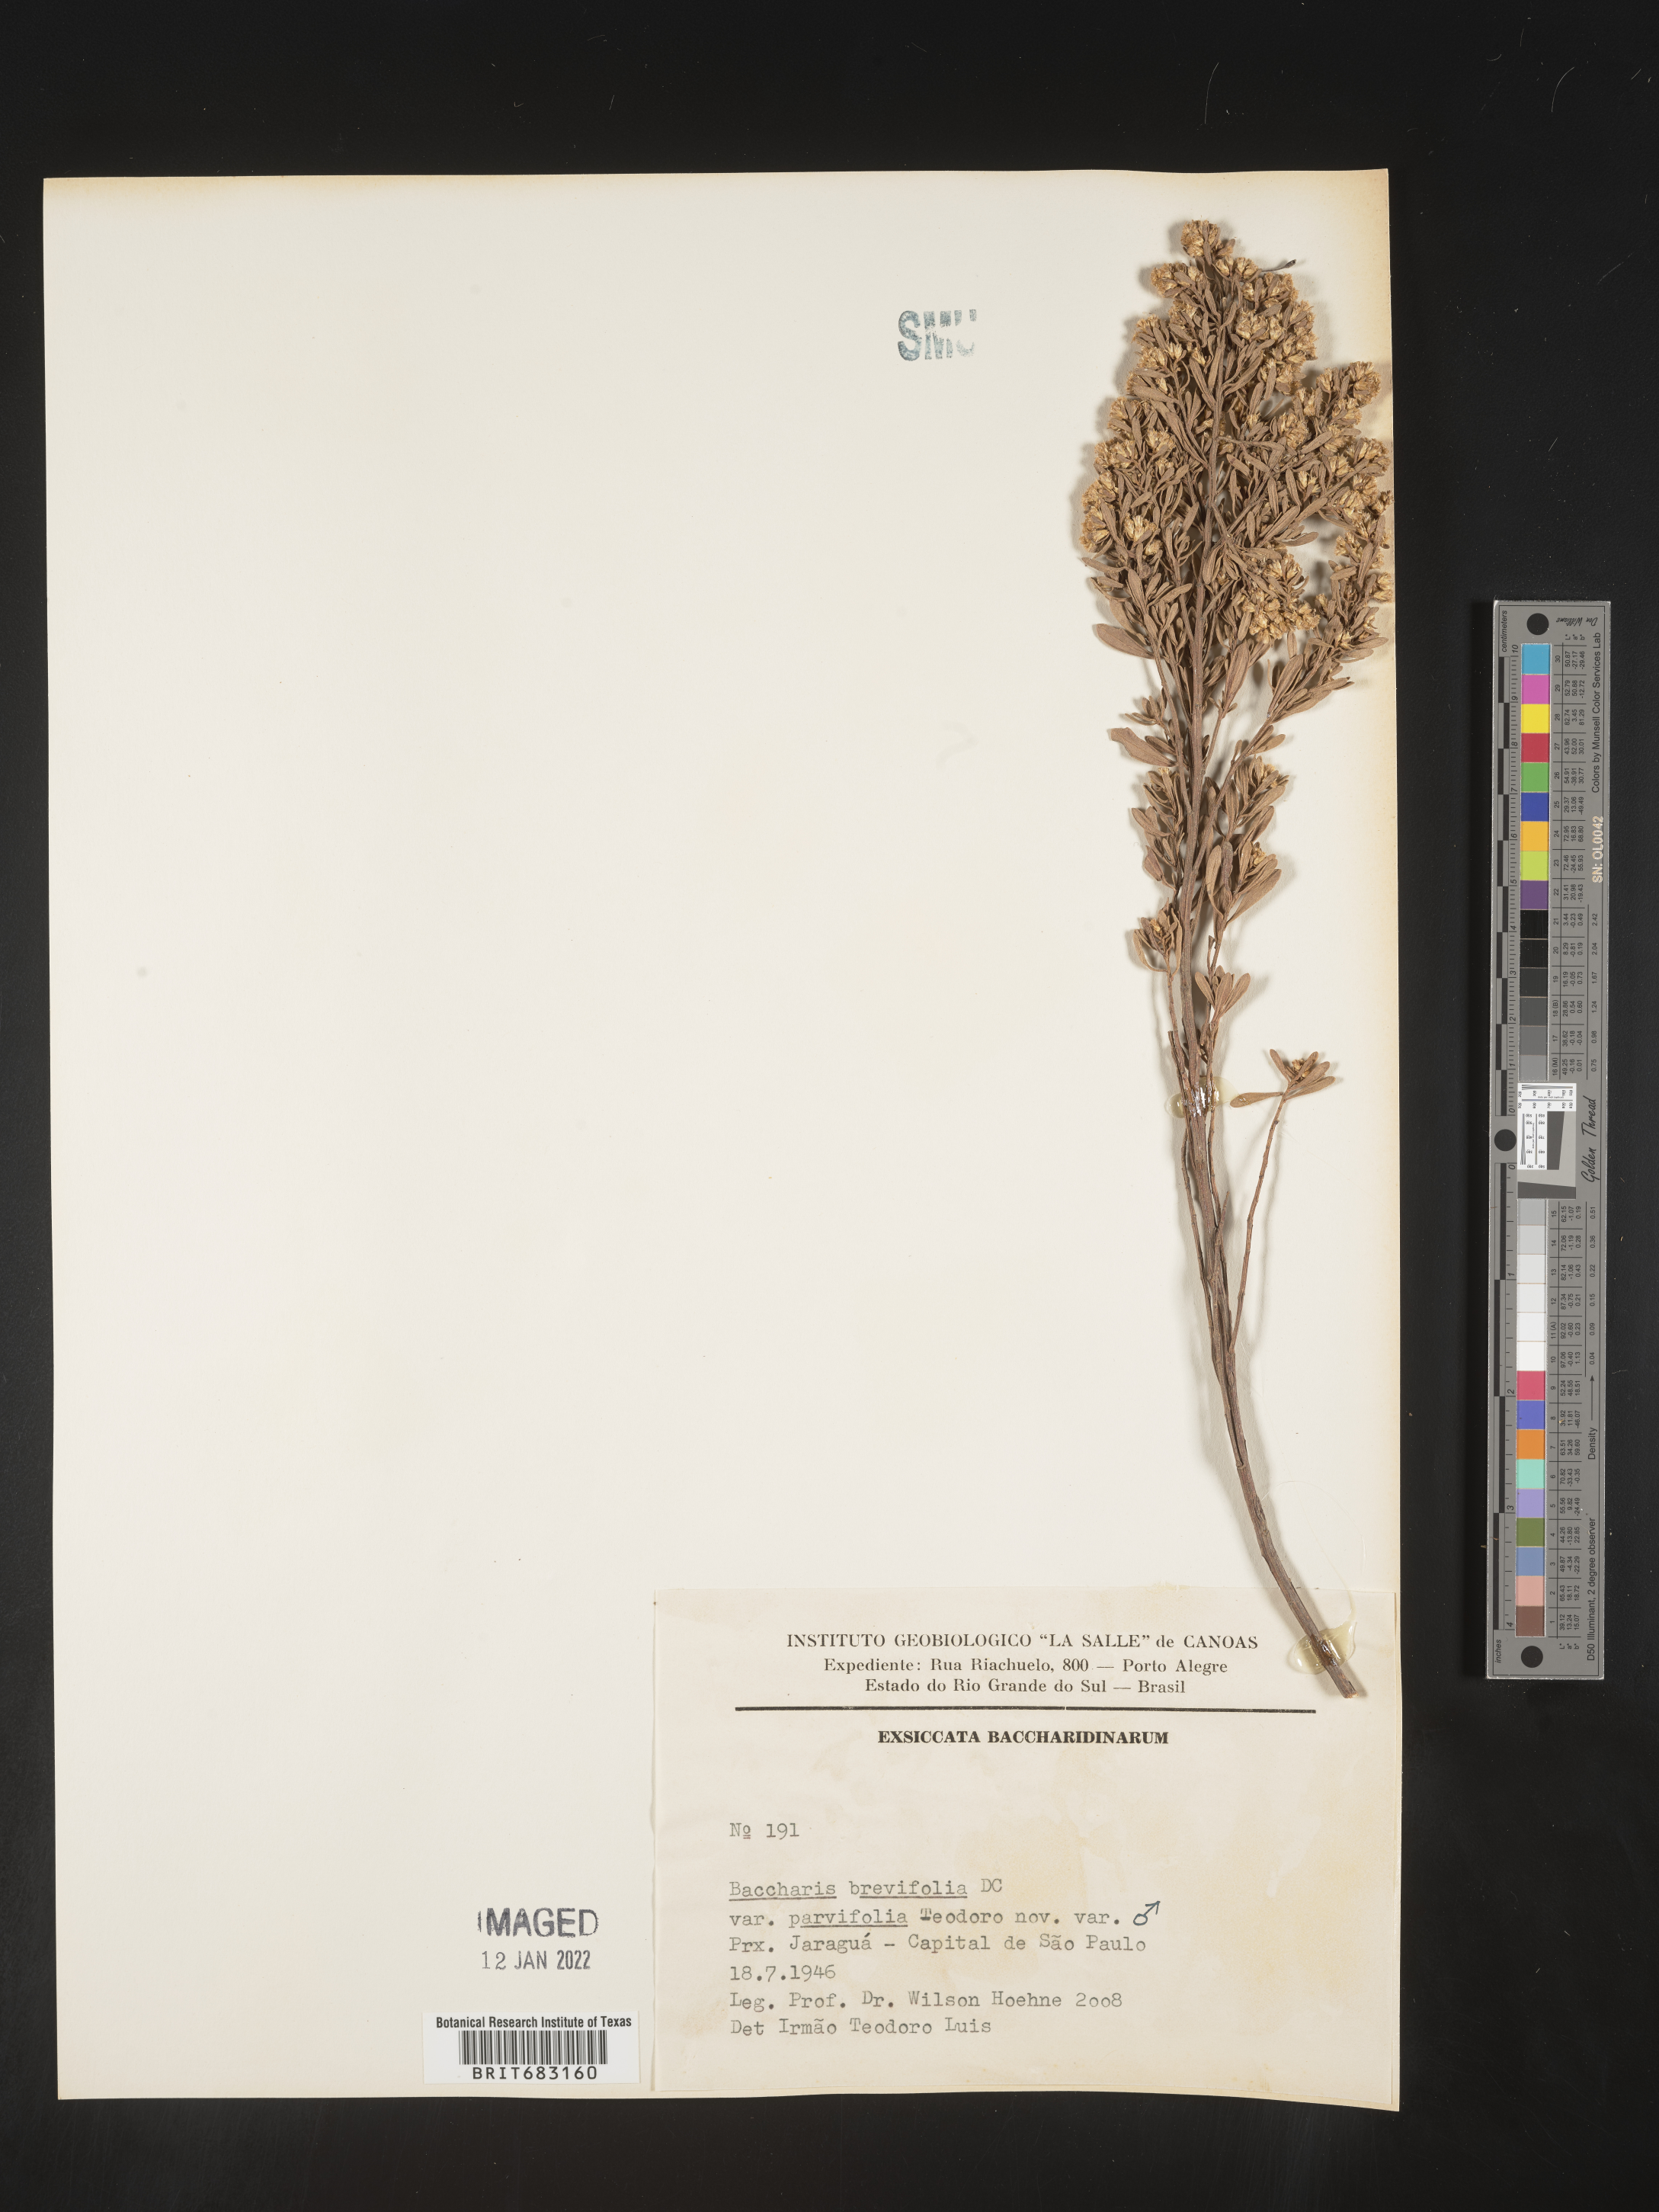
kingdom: Plantae
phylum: Tracheophyta
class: Magnoliopsida
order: Asterales
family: Asteraceae
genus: Baccharis
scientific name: Baccharis
